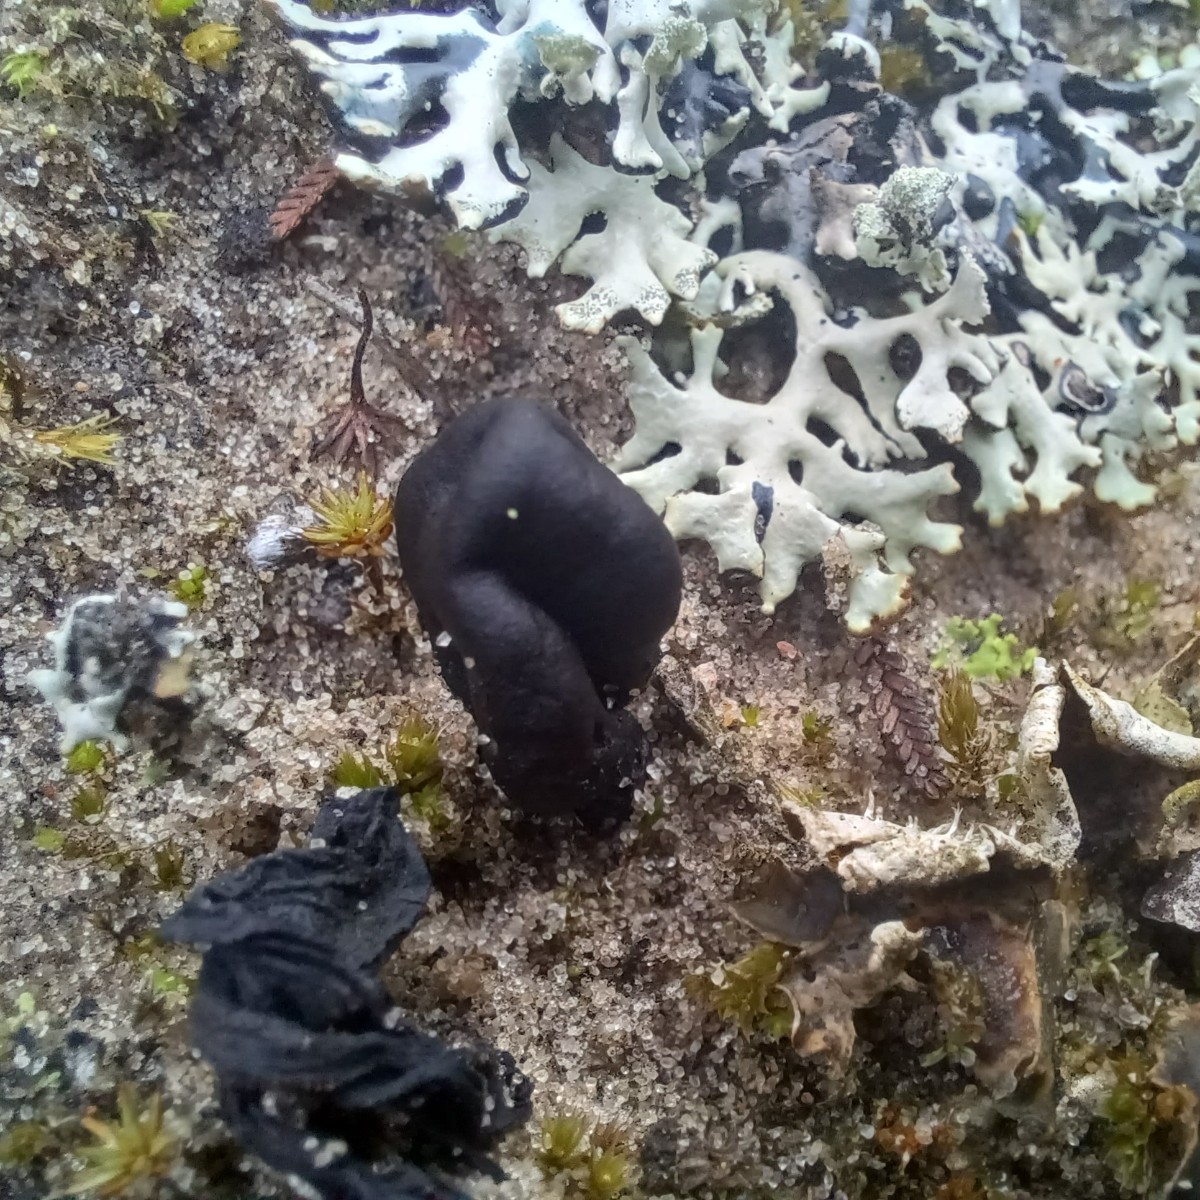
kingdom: Fungi
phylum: Ascomycota
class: Geoglossomycetes
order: Geoglossales
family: Geoglossaceae
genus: Sabuloglossum
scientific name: Sabuloglossum arenarium
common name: klit-jordtunge
